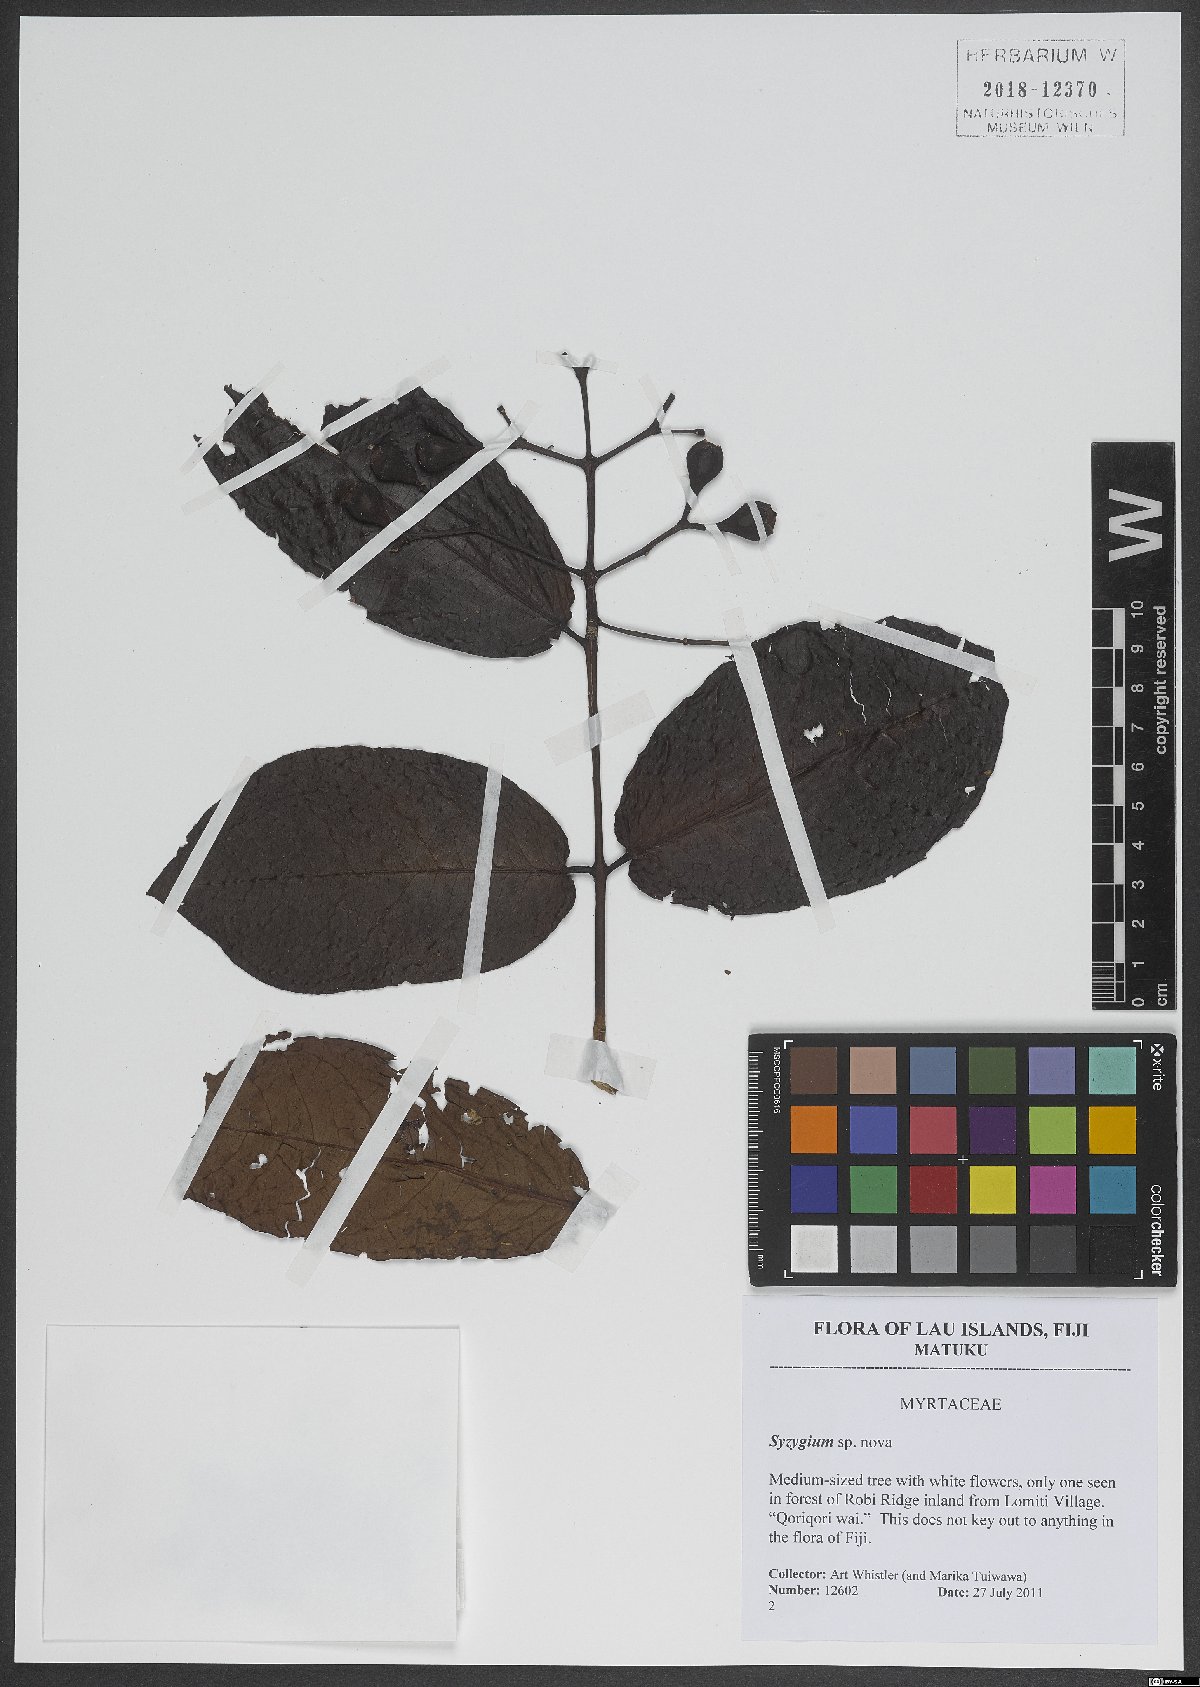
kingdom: Plantae
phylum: Tracheophyta
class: Magnoliopsida
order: Myrtales
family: Myrtaceae
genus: Syzygium
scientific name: Syzygium
